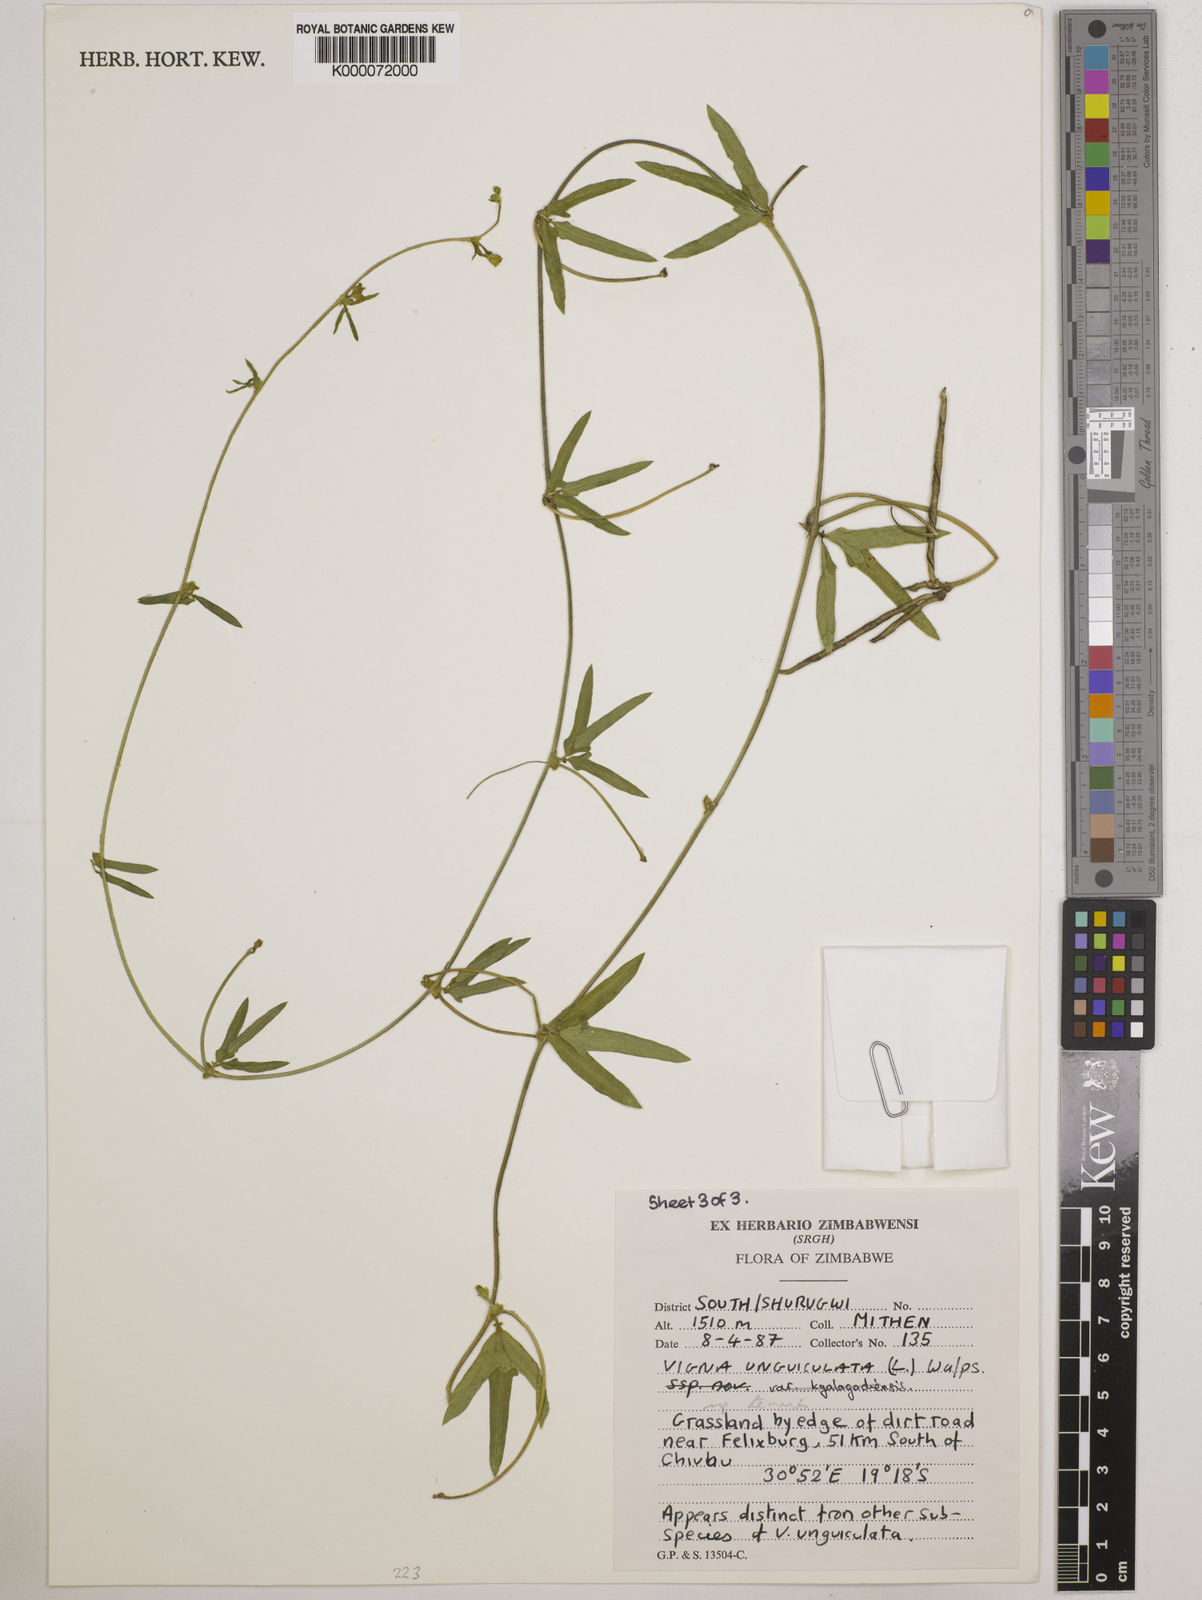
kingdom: Plantae
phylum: Tracheophyta
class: Magnoliopsida
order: Fabales
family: Fabaceae
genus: Vigna
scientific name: Vigna unguiculata
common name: Cowpea
